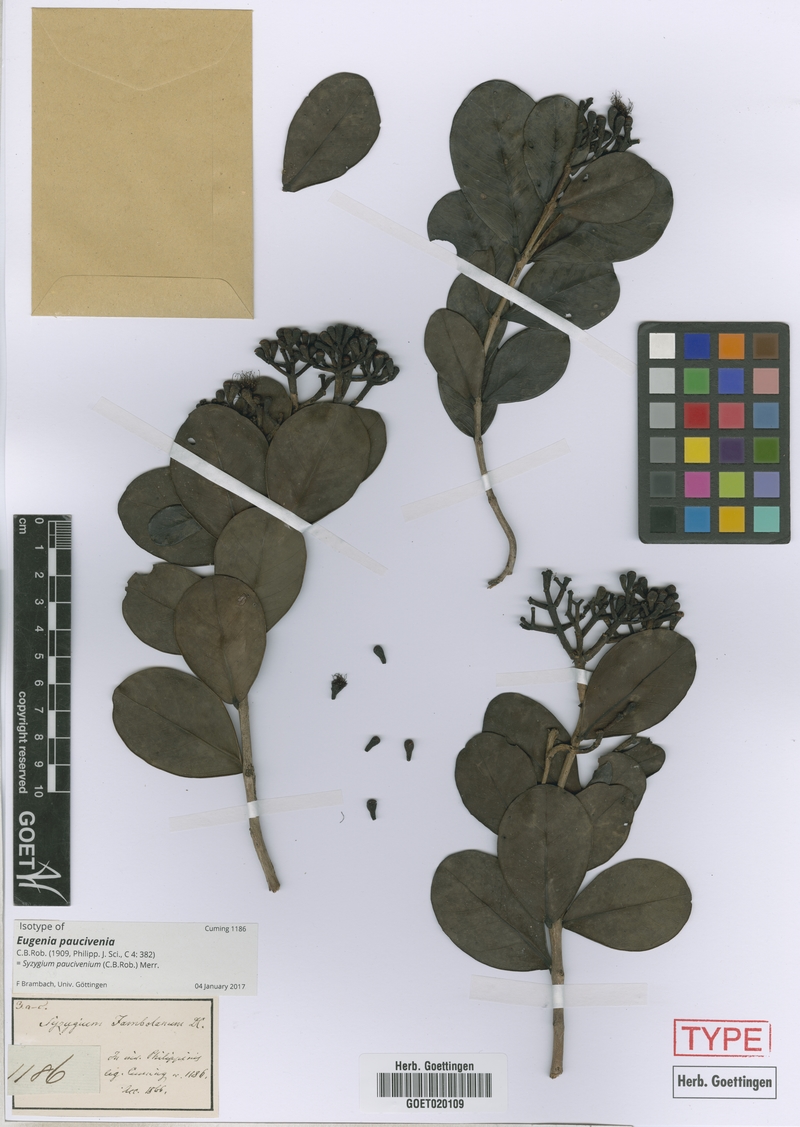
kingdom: Plantae
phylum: Tracheophyta
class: Magnoliopsida
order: Myrtales
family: Myrtaceae
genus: Syzygium
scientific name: Syzygium paucivenium
